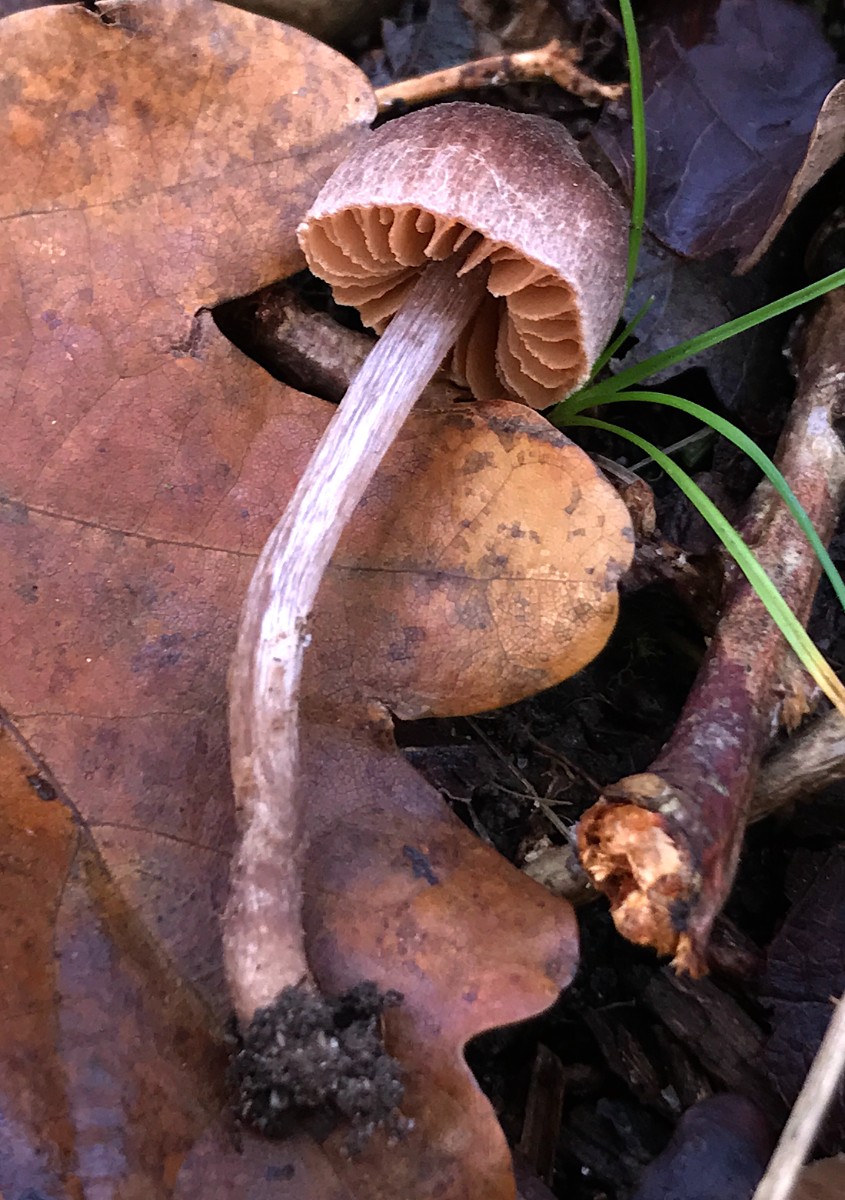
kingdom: Fungi
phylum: Basidiomycota
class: Agaricomycetes
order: Agaricales
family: Cortinariaceae
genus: Cortinarius
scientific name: Cortinarius
